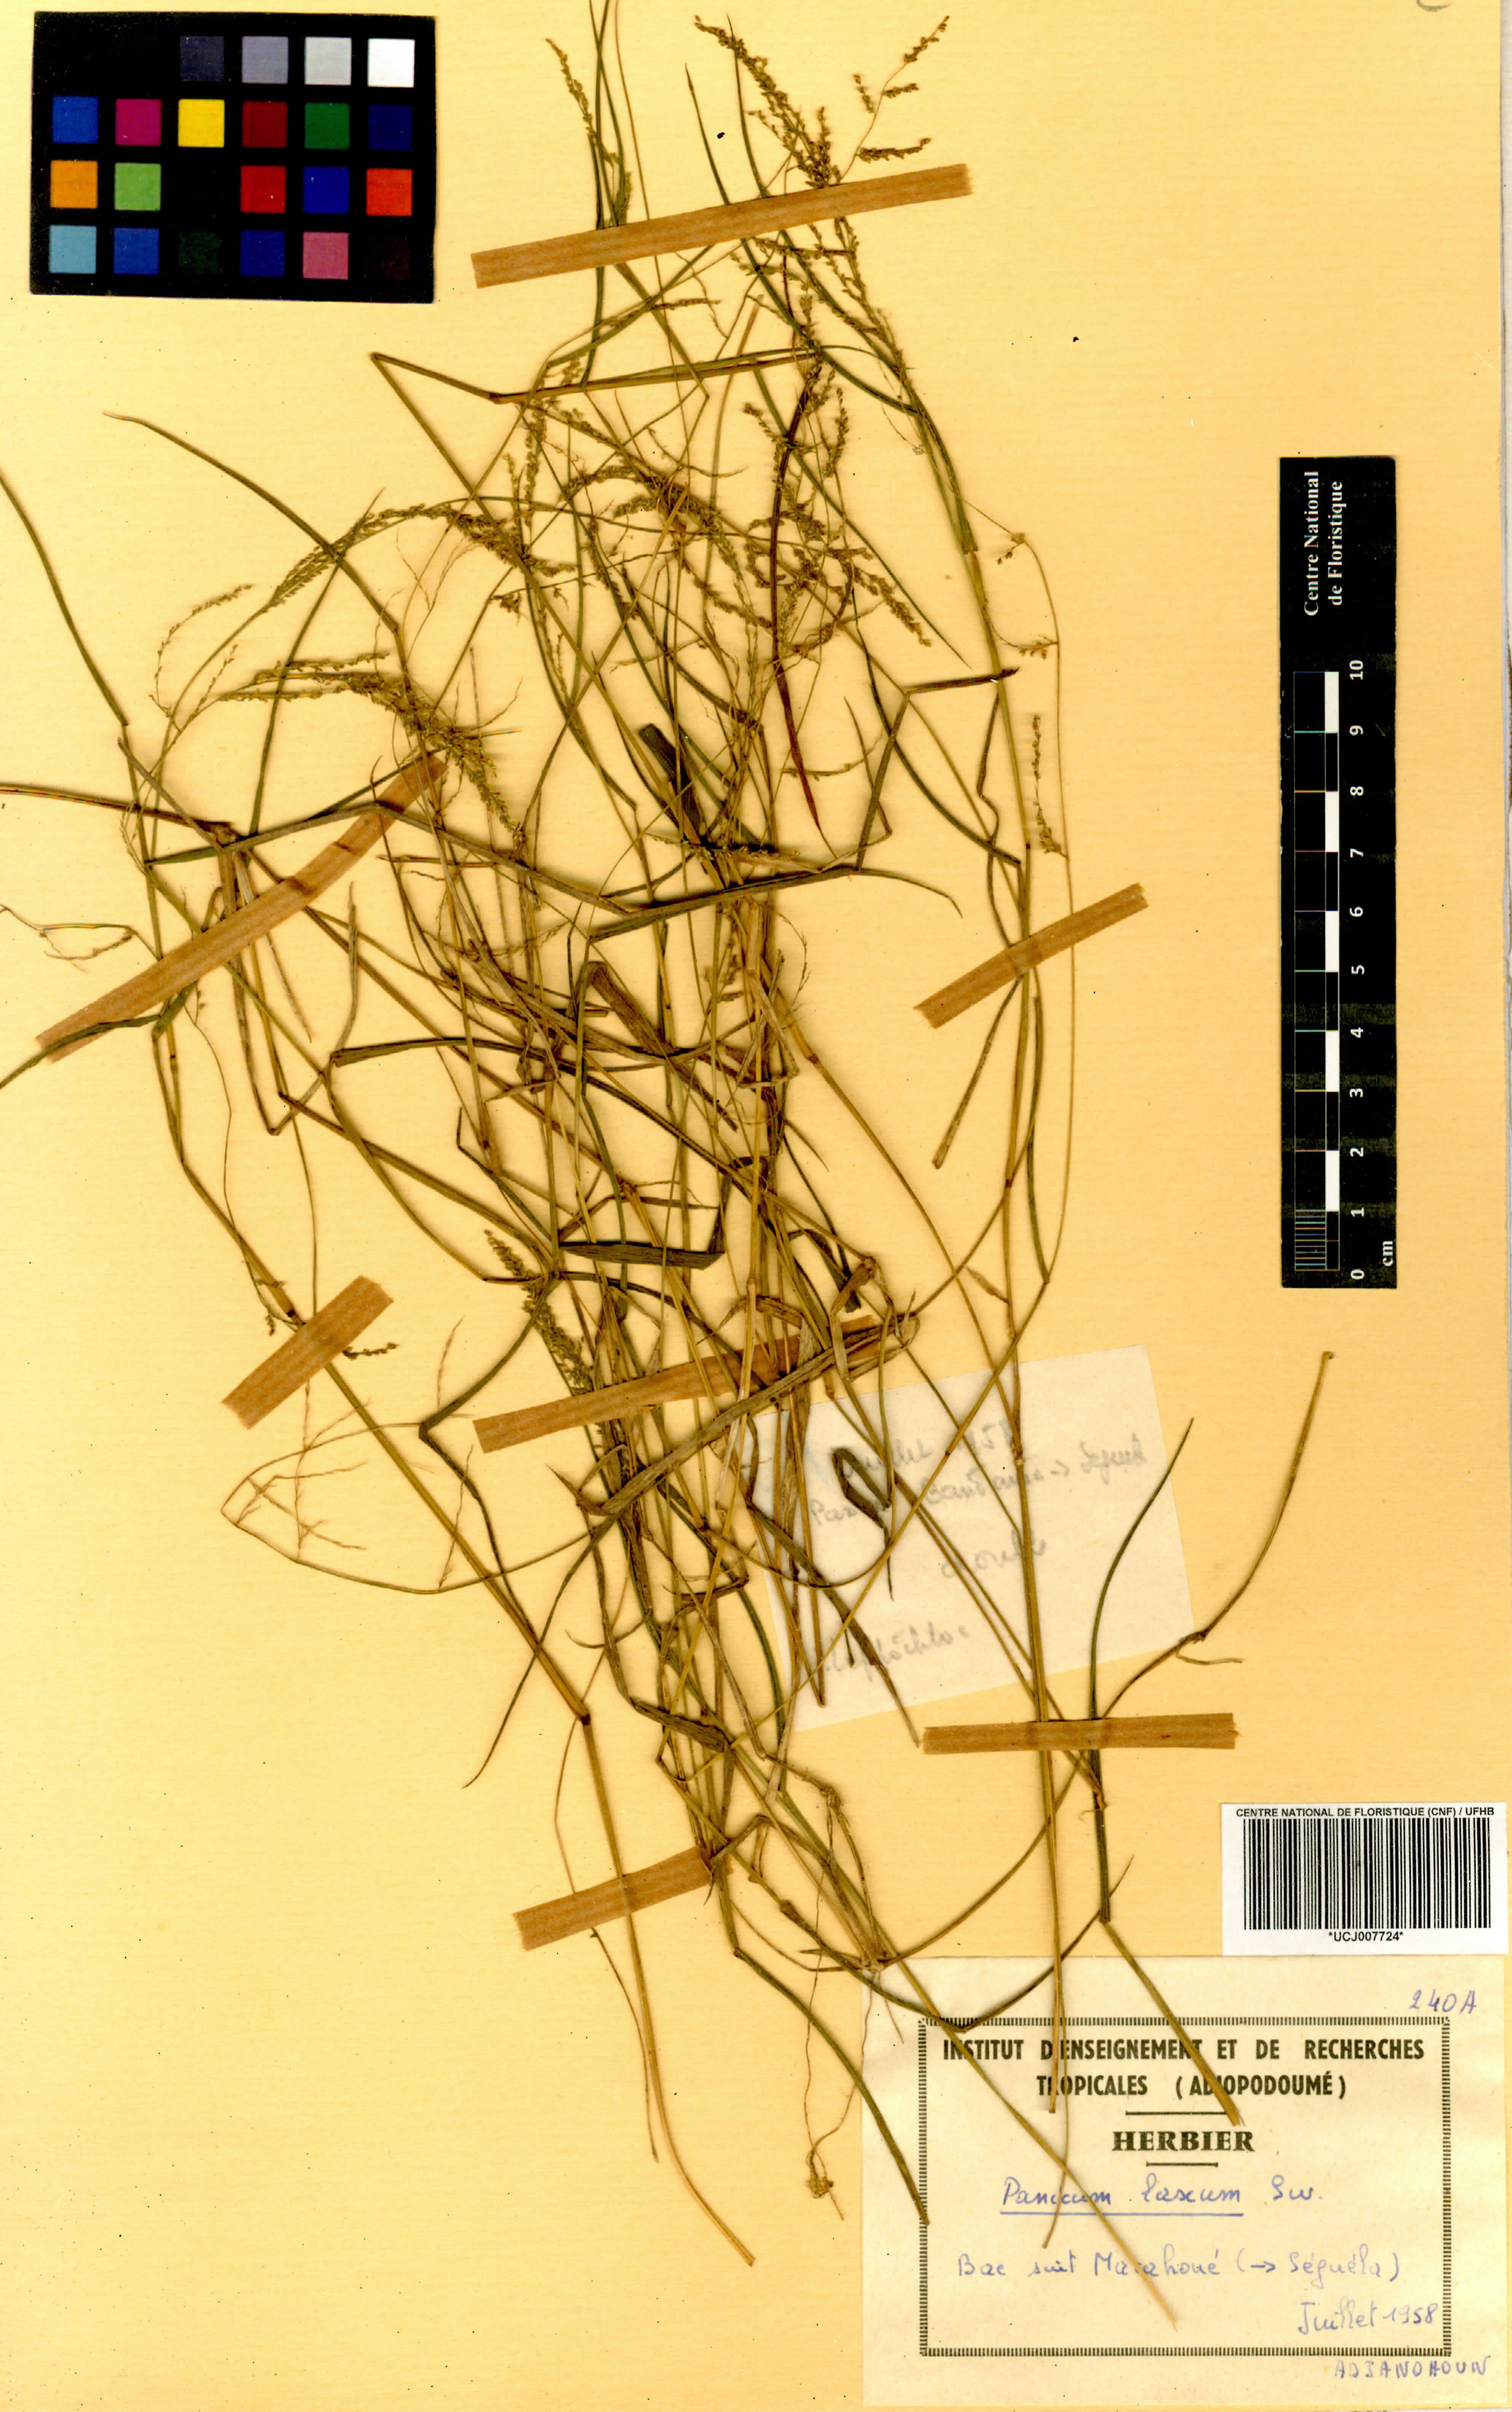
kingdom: Plantae
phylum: Tracheophyta
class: Liliopsida
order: Poales
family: Poaceae
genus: Panicum
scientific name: Panicum pansum
